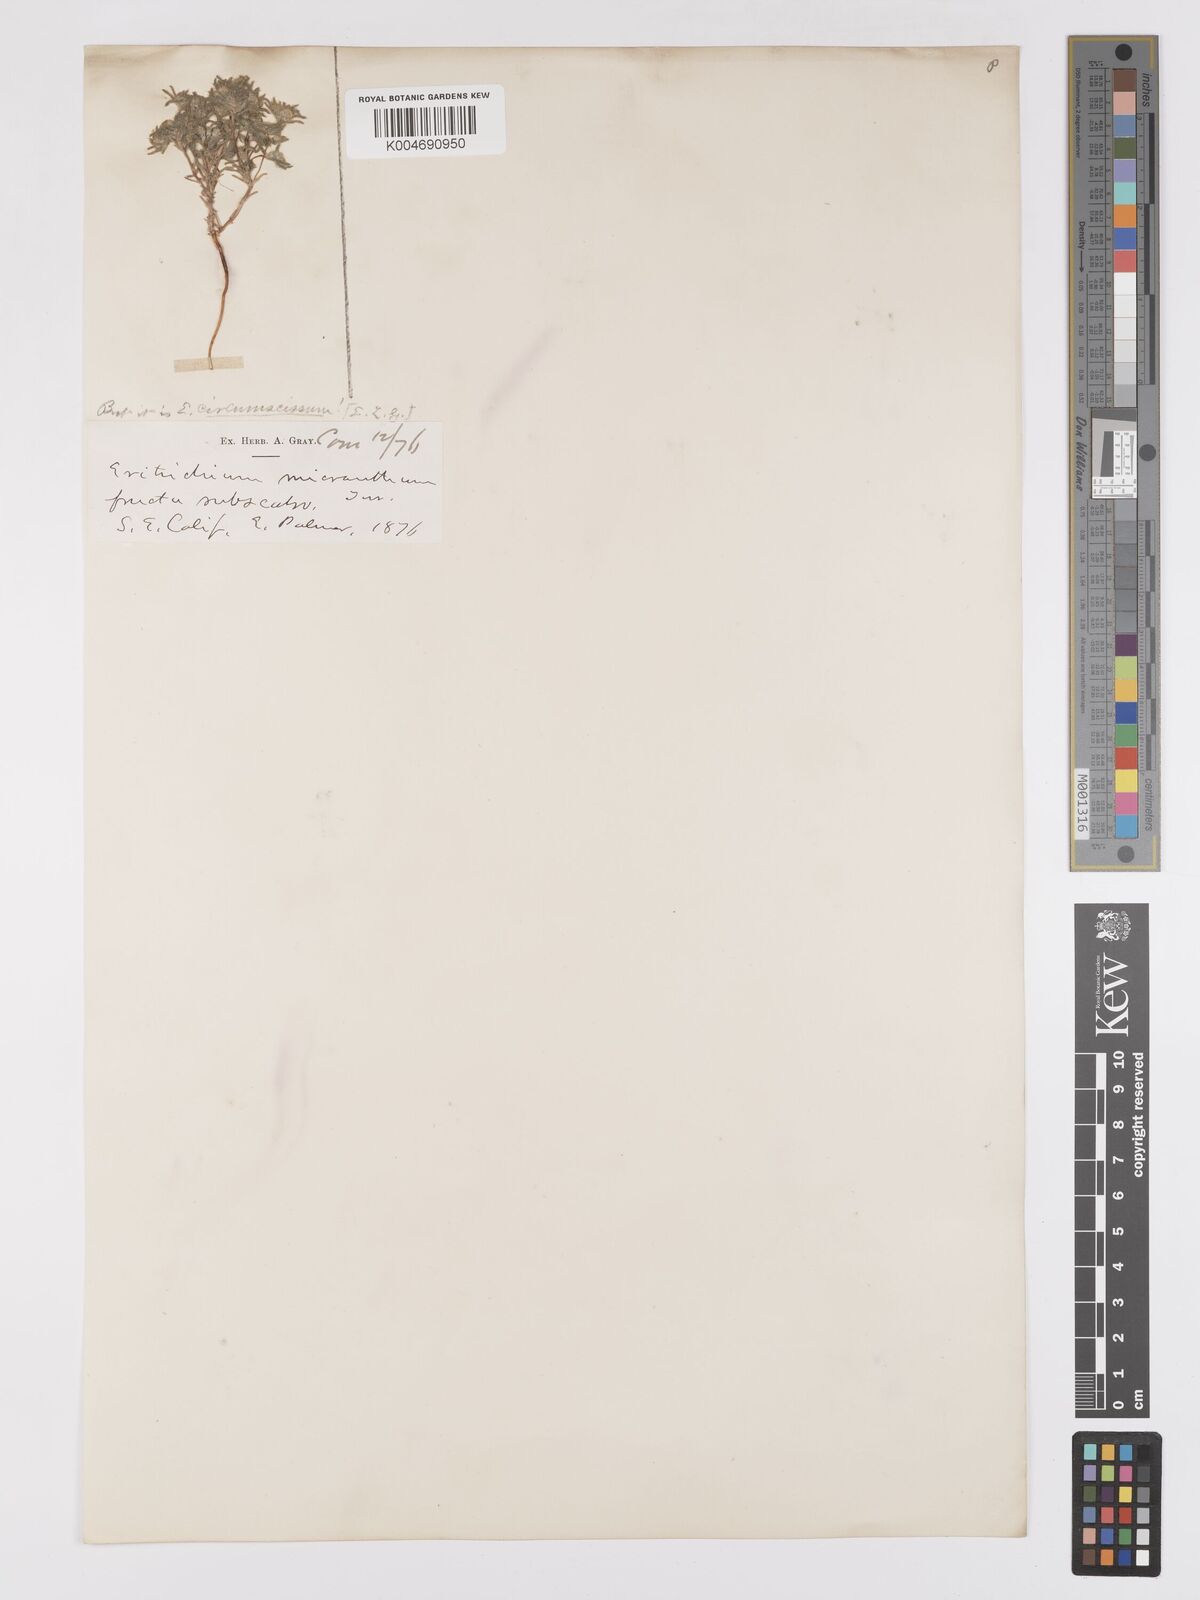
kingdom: Plantae
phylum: Tracheophyta
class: Magnoliopsida
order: Boraginales
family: Boraginaceae
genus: Eremocarya
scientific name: Eremocarya micrantha
